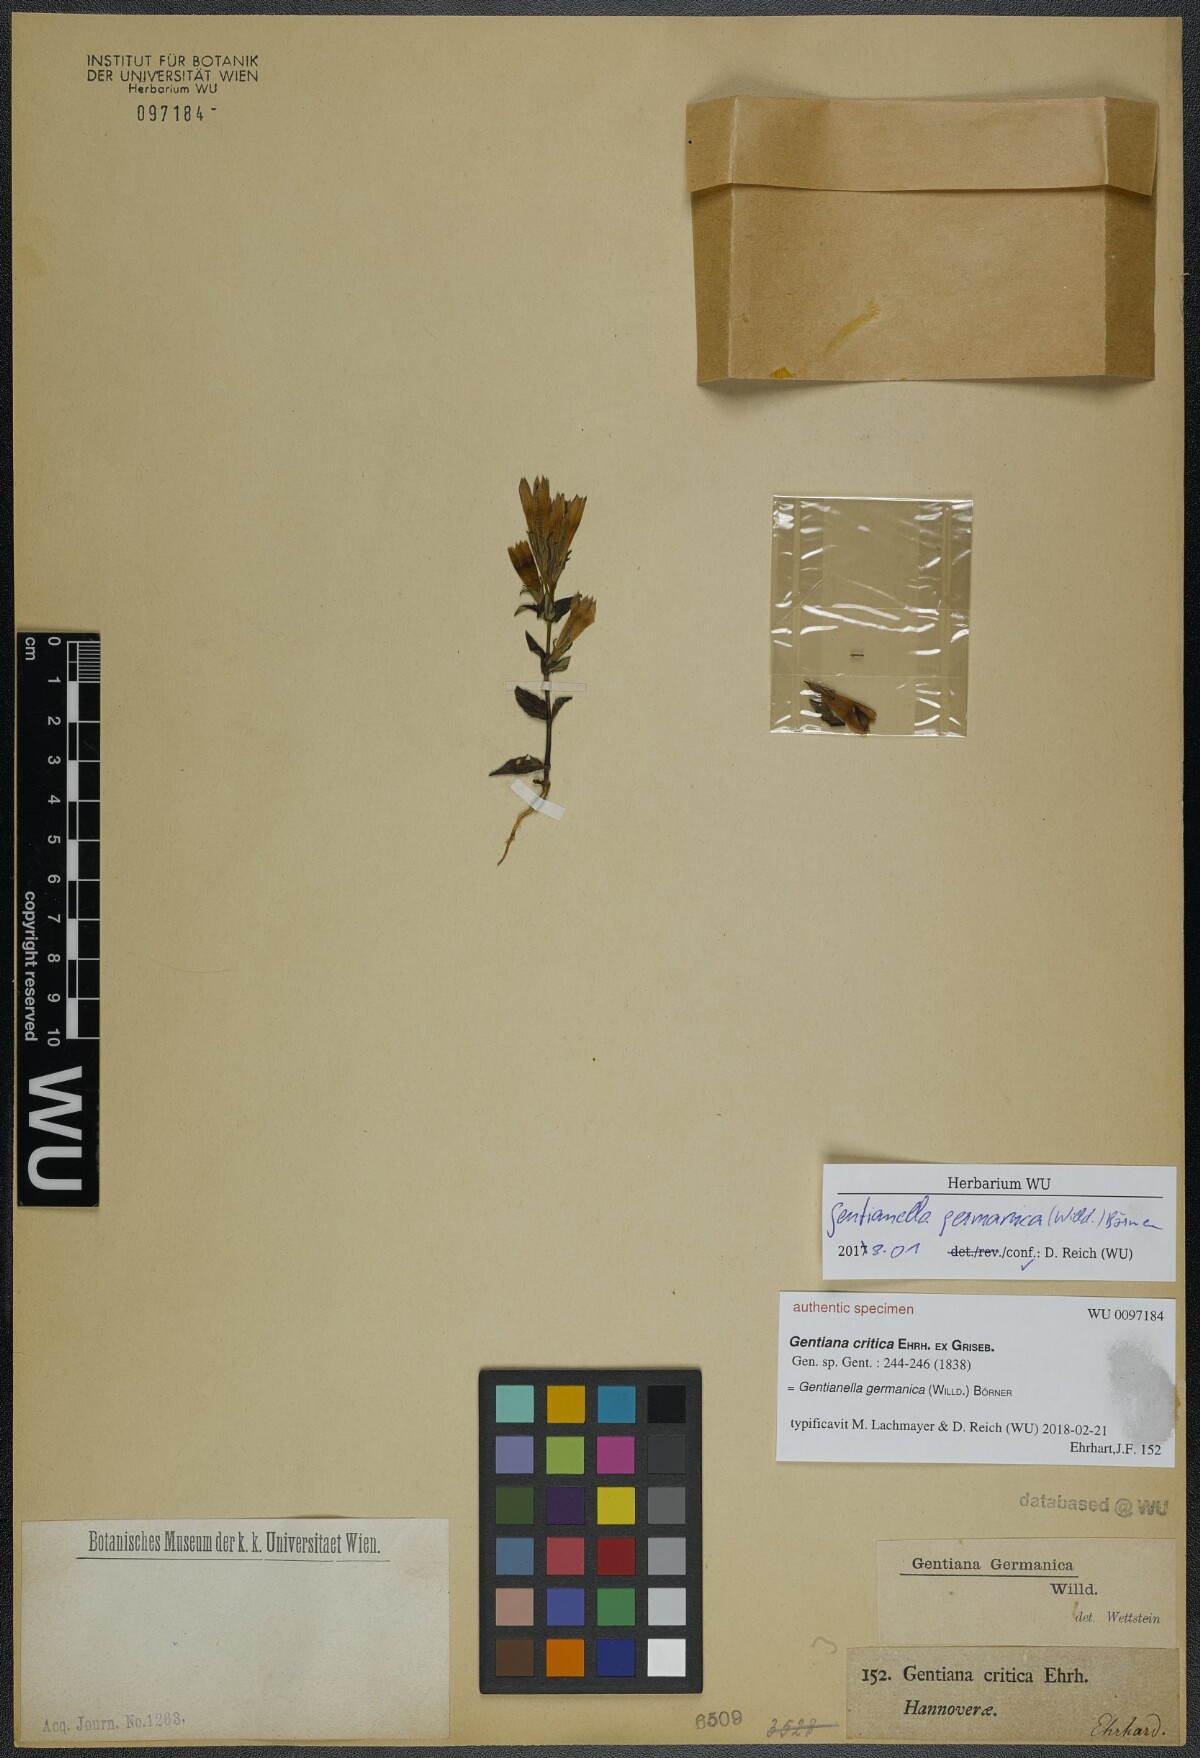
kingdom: Plantae
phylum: Tracheophyta
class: Magnoliopsida
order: Gentianales
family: Gentianaceae
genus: Gentianella
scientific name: Gentianella germanica
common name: Chiltern-gentian
